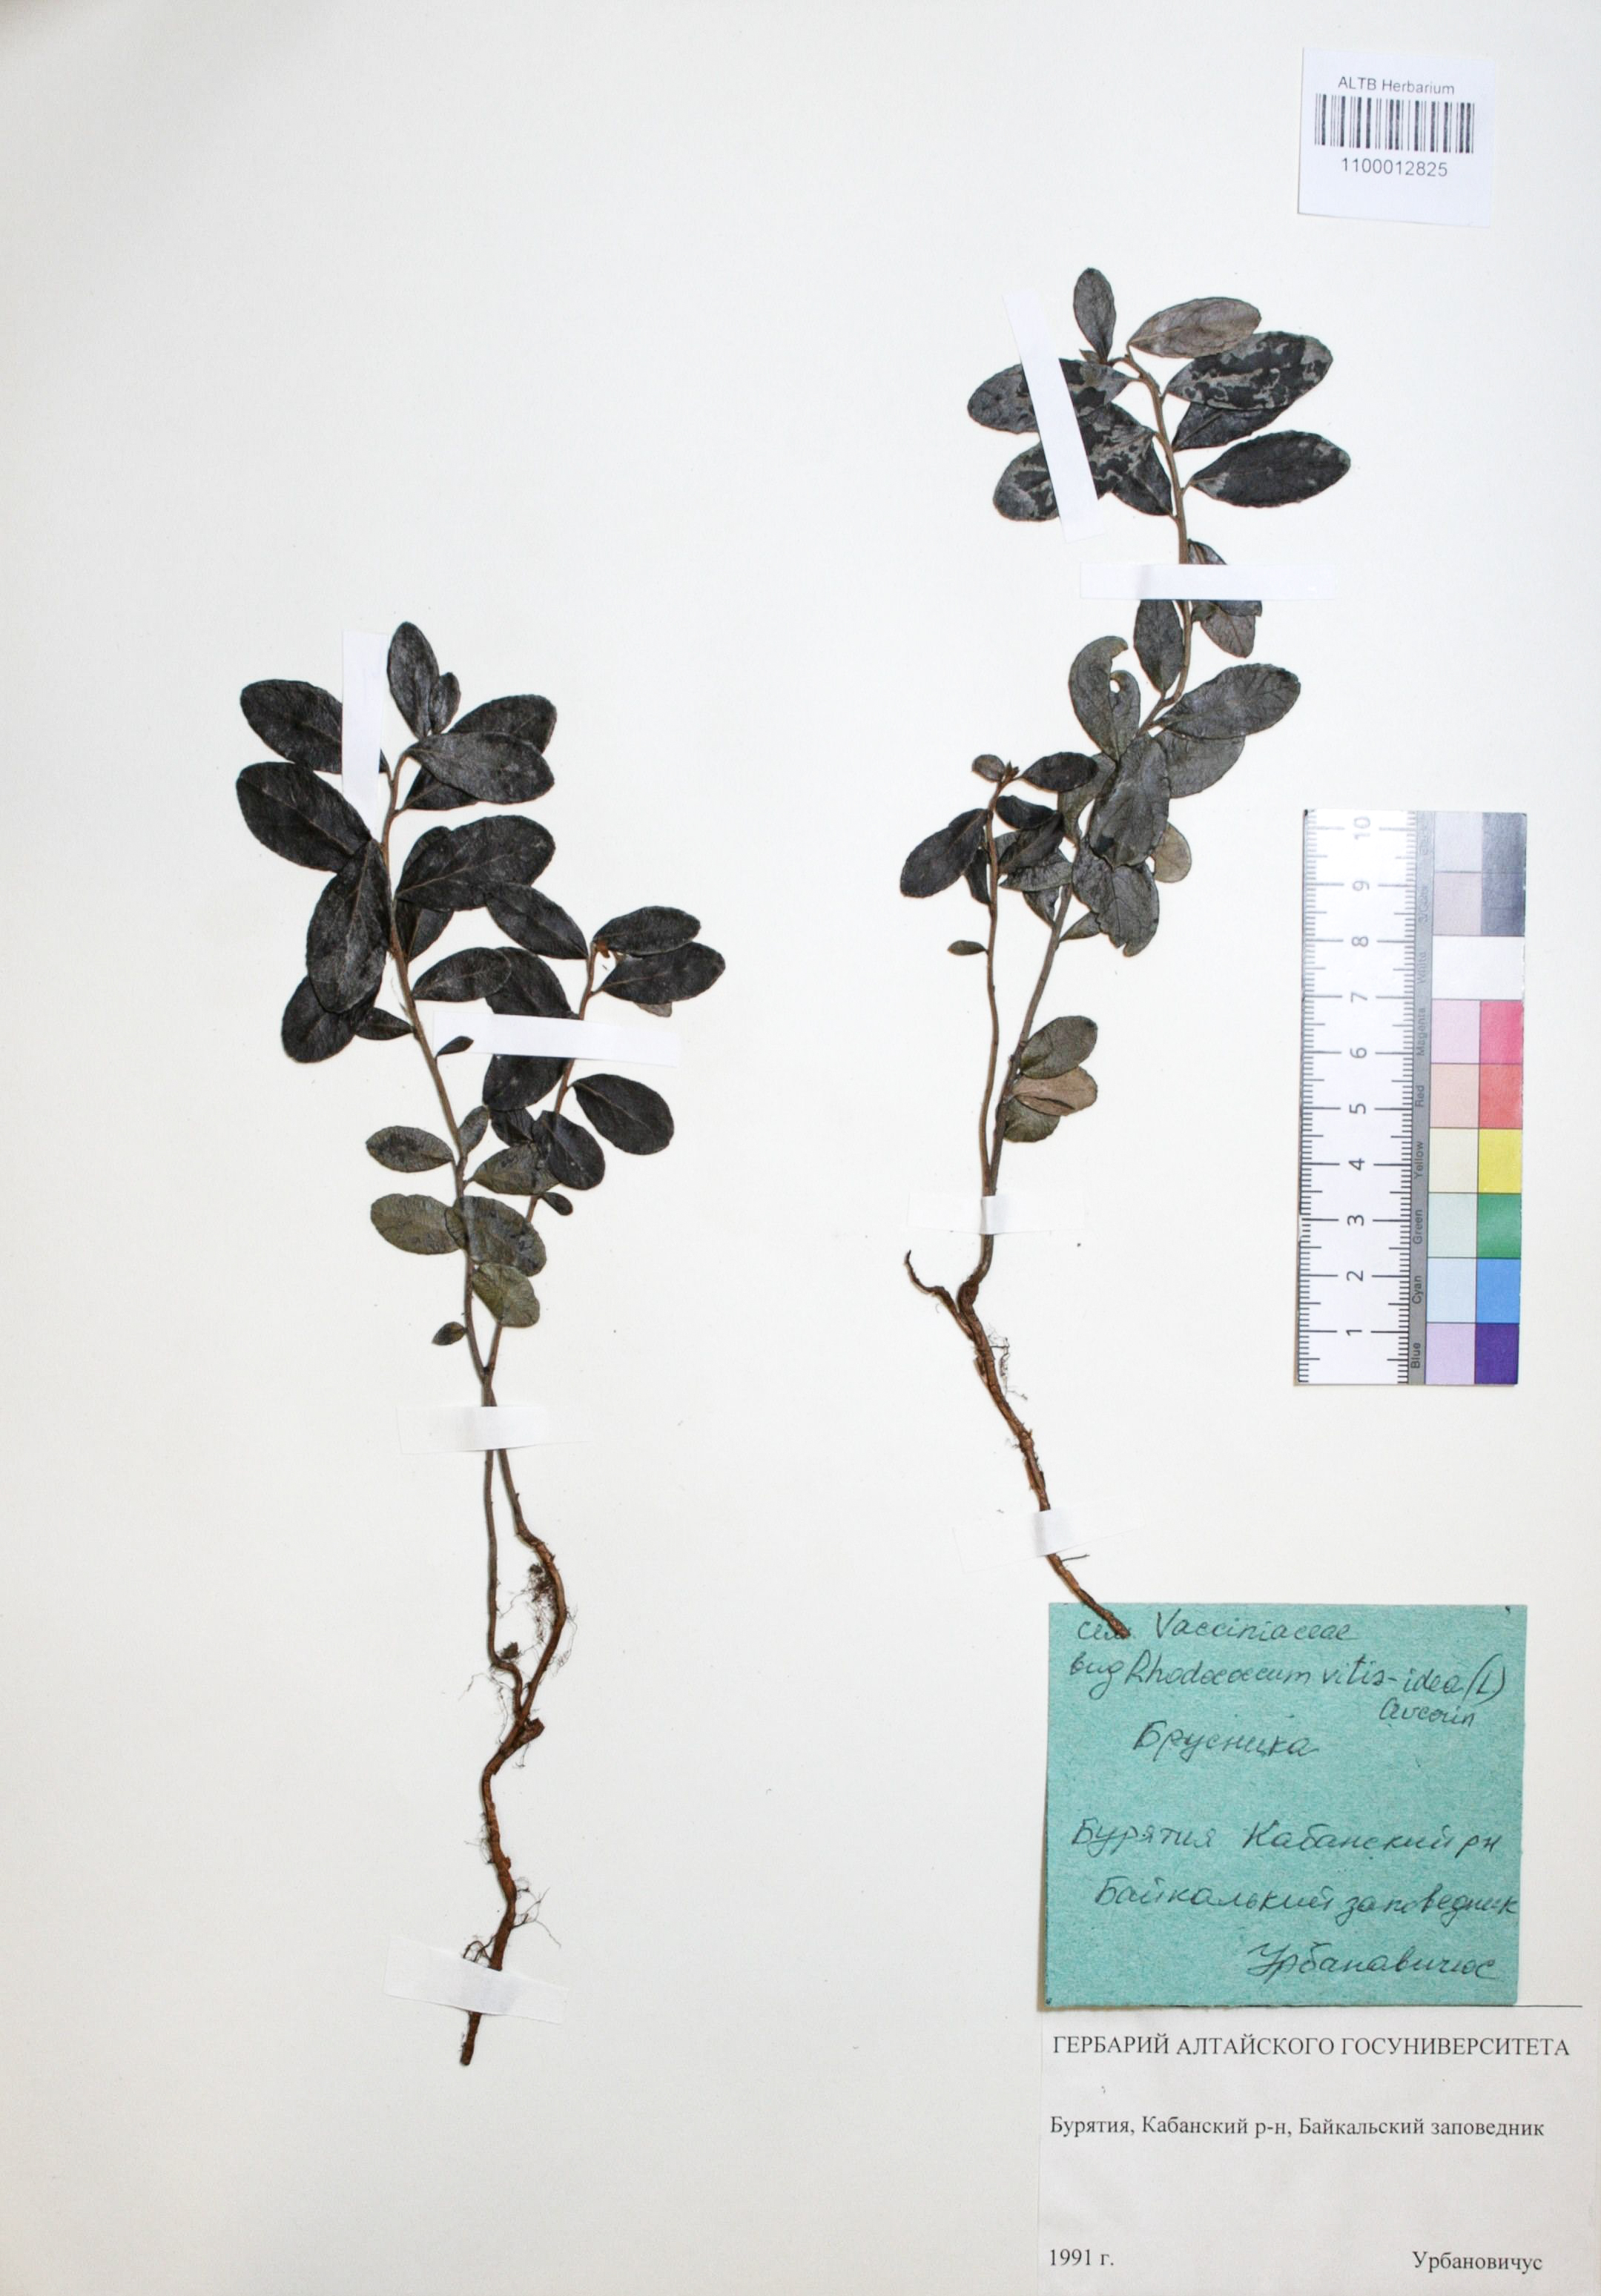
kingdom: Plantae
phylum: Tracheophyta
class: Magnoliopsida
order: Ericales
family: Ericaceae
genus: Vaccinium
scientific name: Vaccinium vitis-idaea
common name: Cowberry
